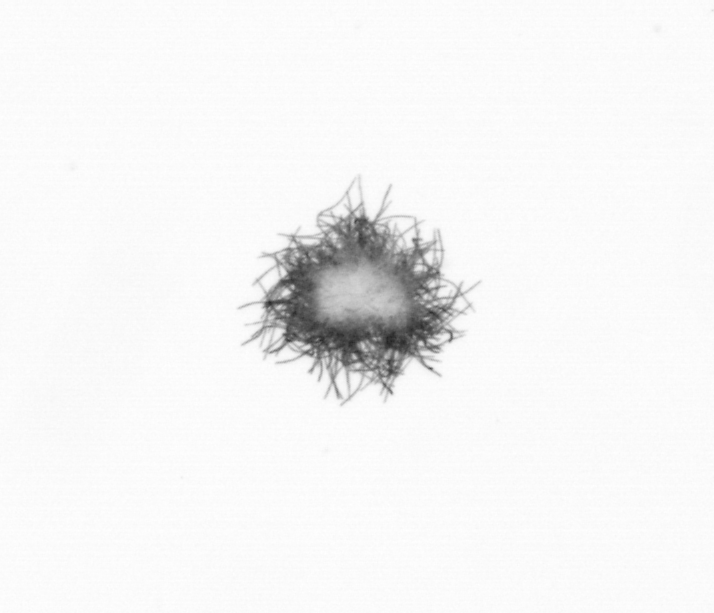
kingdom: Bacteria
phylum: Cyanobacteria
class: Cyanobacteriia
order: Cyanobacteriales
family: Microcoleaceae
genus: Trichodesmium
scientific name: Trichodesmium
